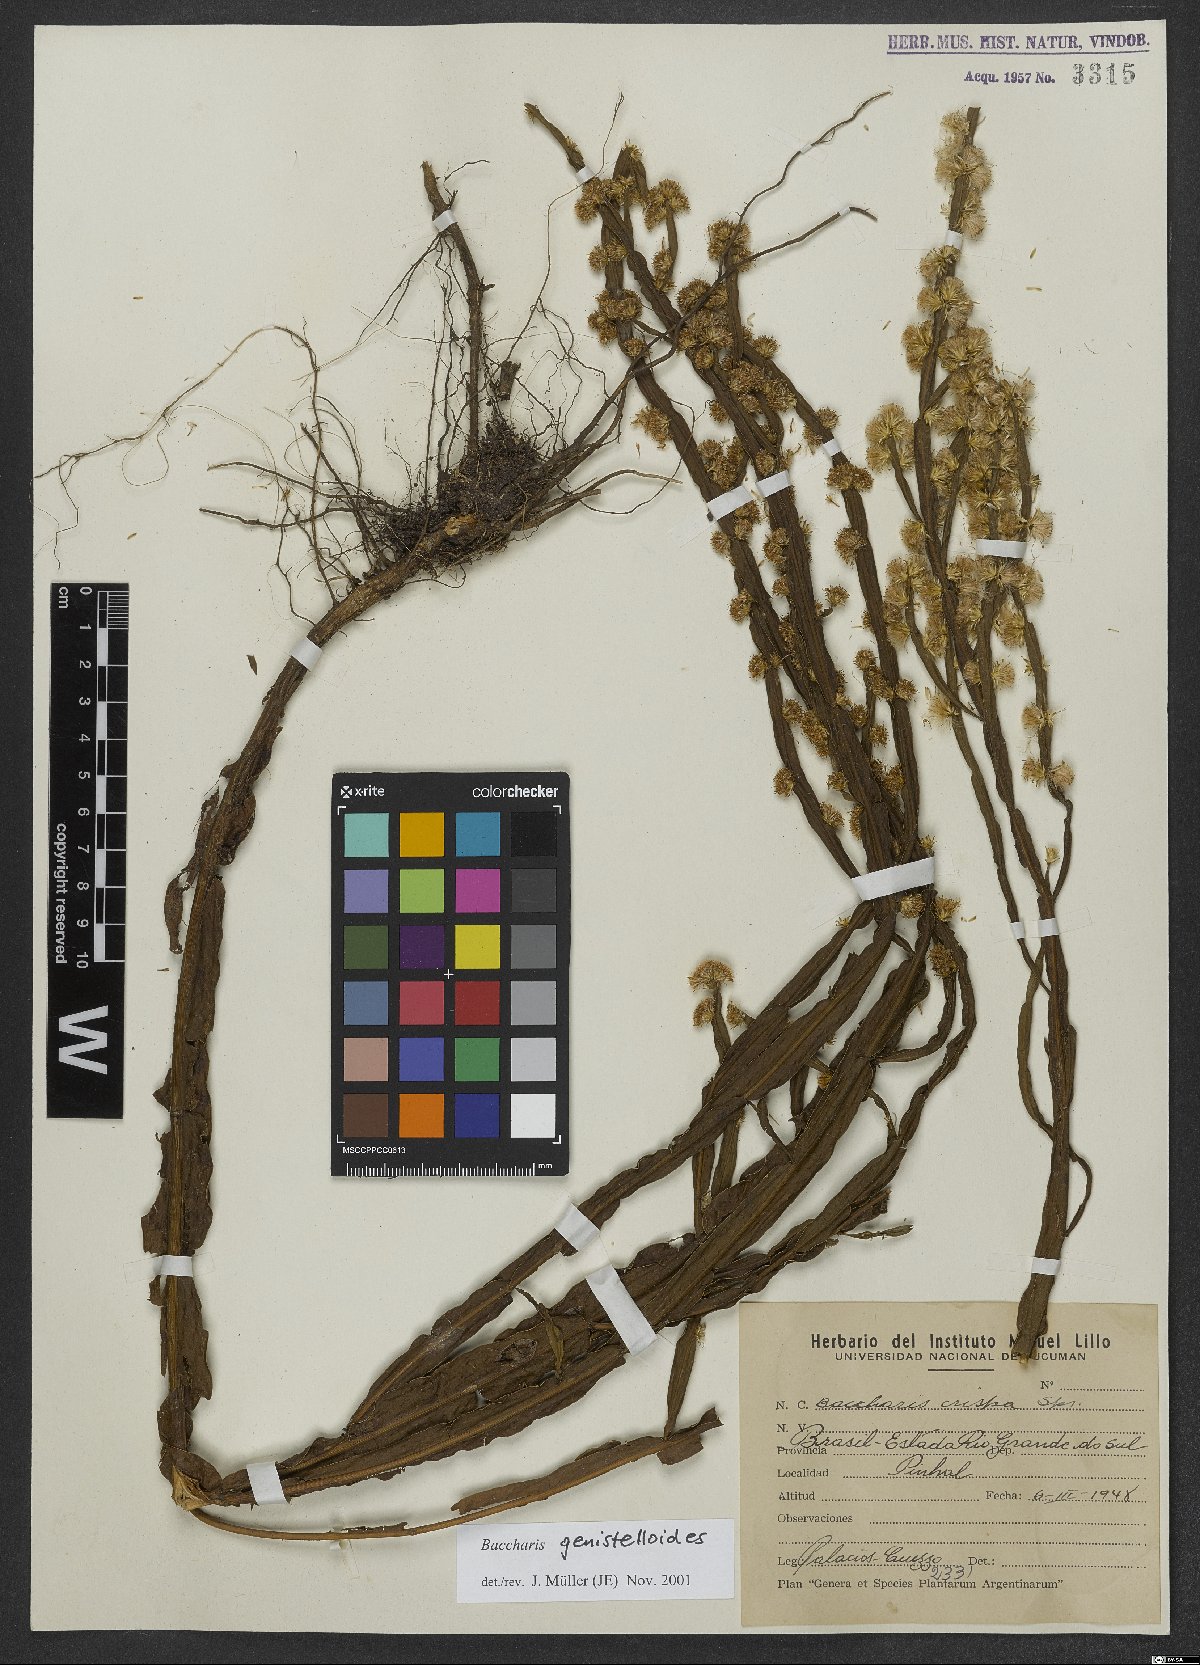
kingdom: Plantae
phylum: Tracheophyta
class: Magnoliopsida
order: Asterales
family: Asteraceae
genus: Baccharis
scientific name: Baccharis genistelloides
